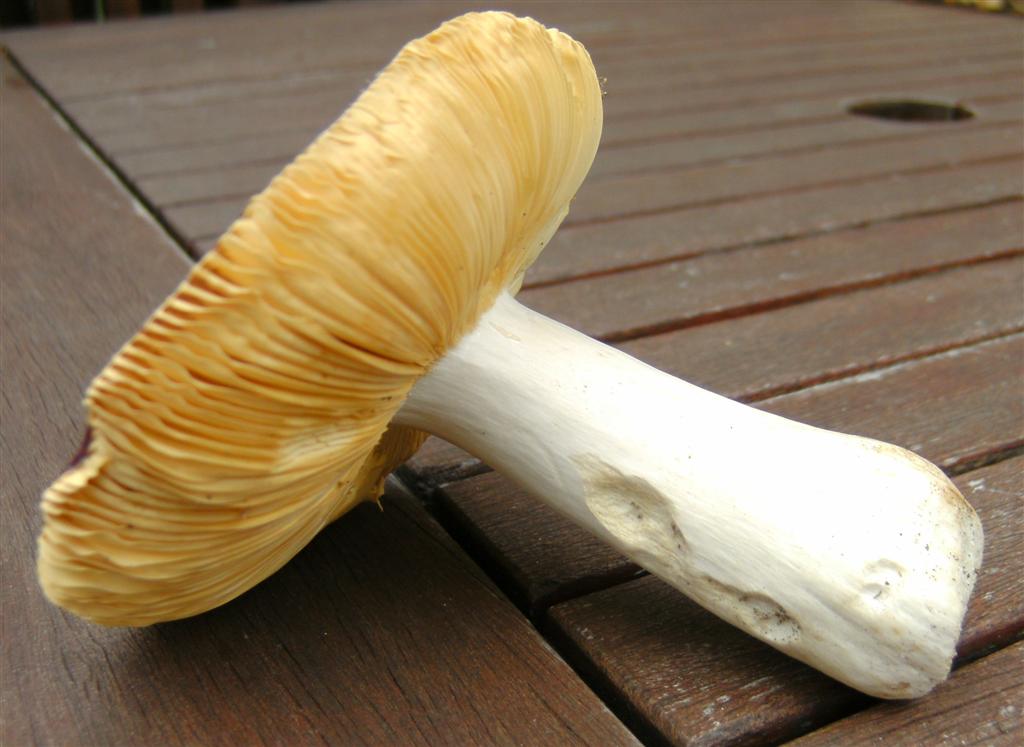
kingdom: Fungi
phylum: Basidiomycota
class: Agaricomycetes
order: Russulales
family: Russulaceae
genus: Russula
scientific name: Russula romellii
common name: romells skørhat
